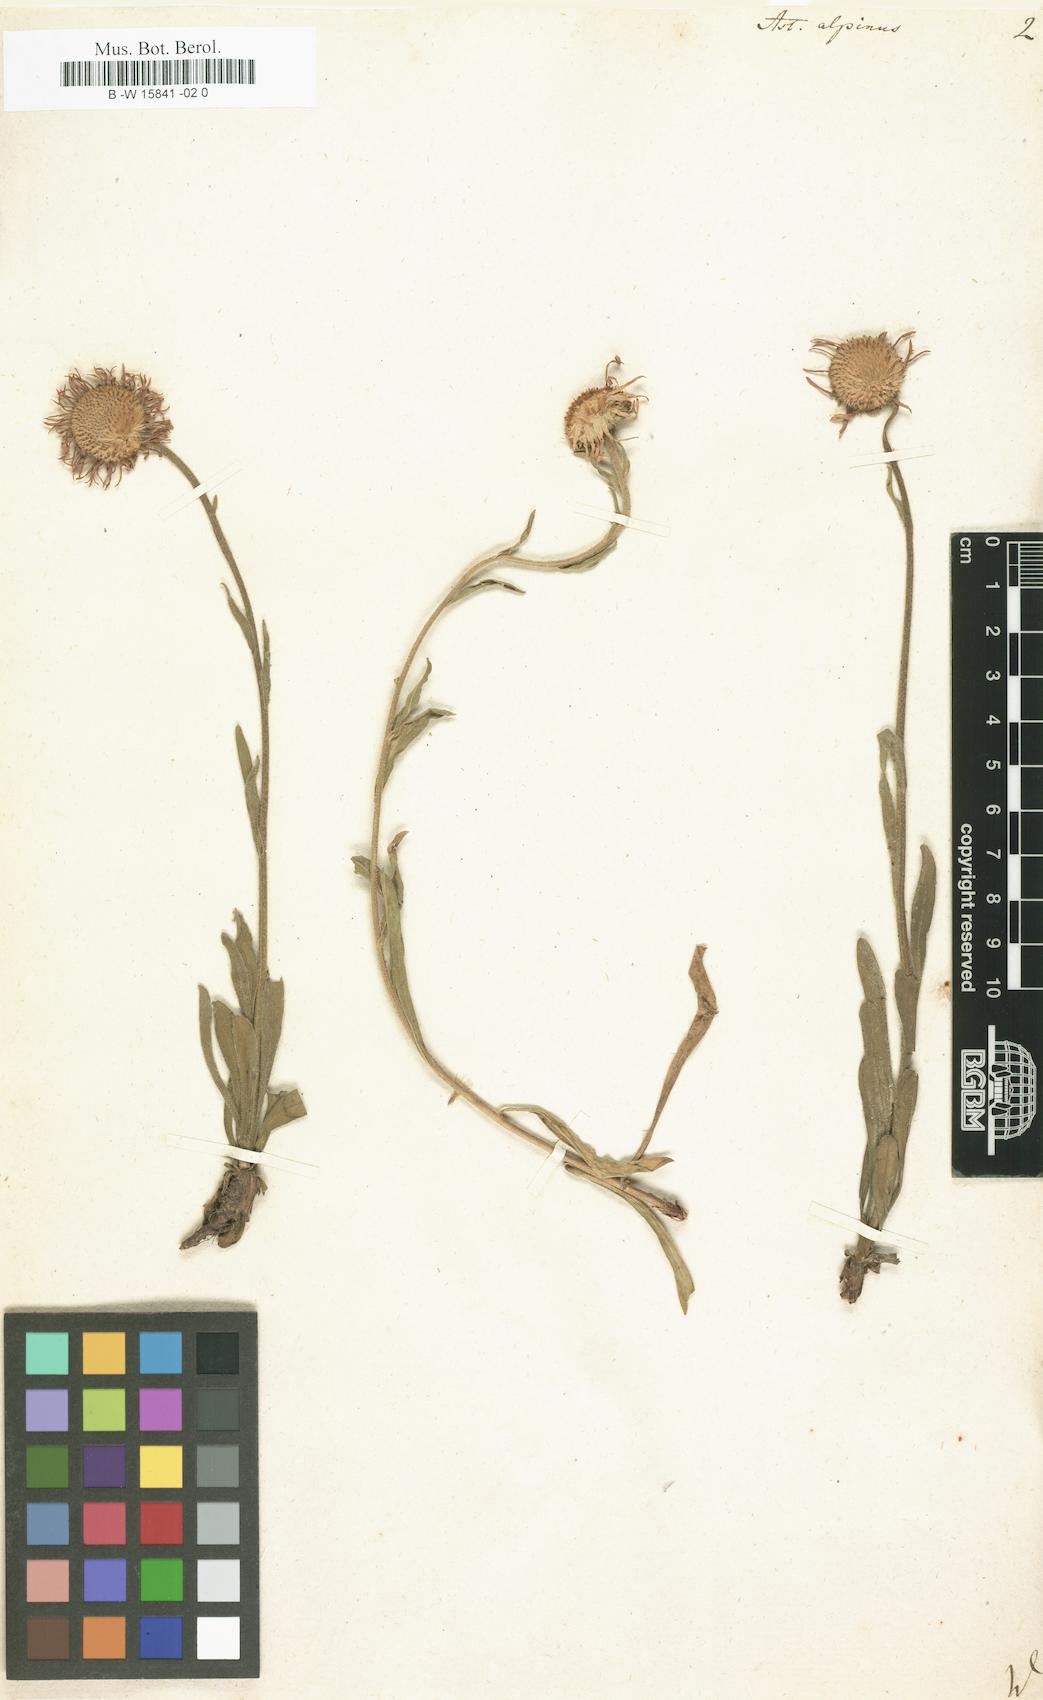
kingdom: Plantae
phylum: Tracheophyta
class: Magnoliopsida
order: Asterales
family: Asteraceae
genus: Aster
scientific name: Aster alpinus
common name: Alpine aster
